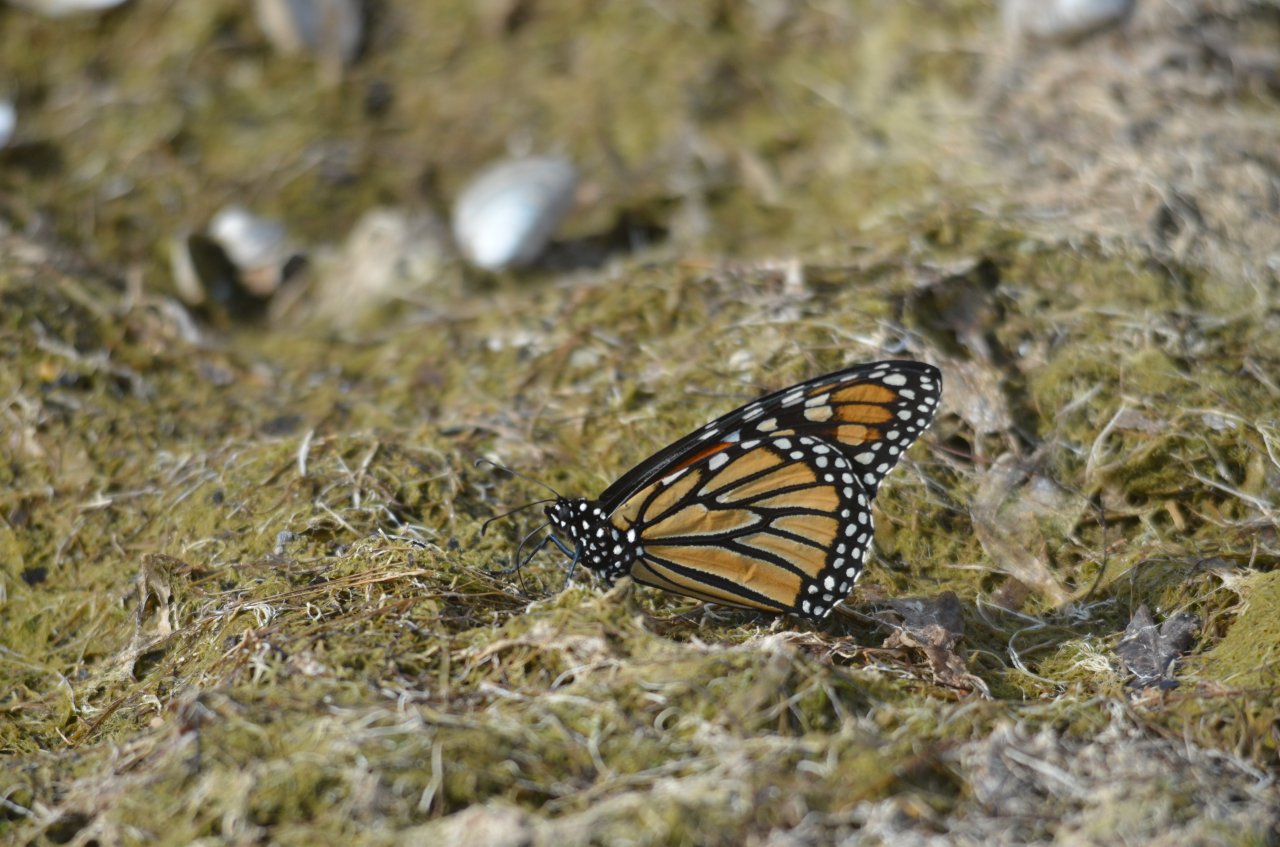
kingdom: Animalia
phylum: Arthropoda
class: Insecta
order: Lepidoptera
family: Nymphalidae
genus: Danaus
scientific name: Danaus plexippus
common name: Monarch
